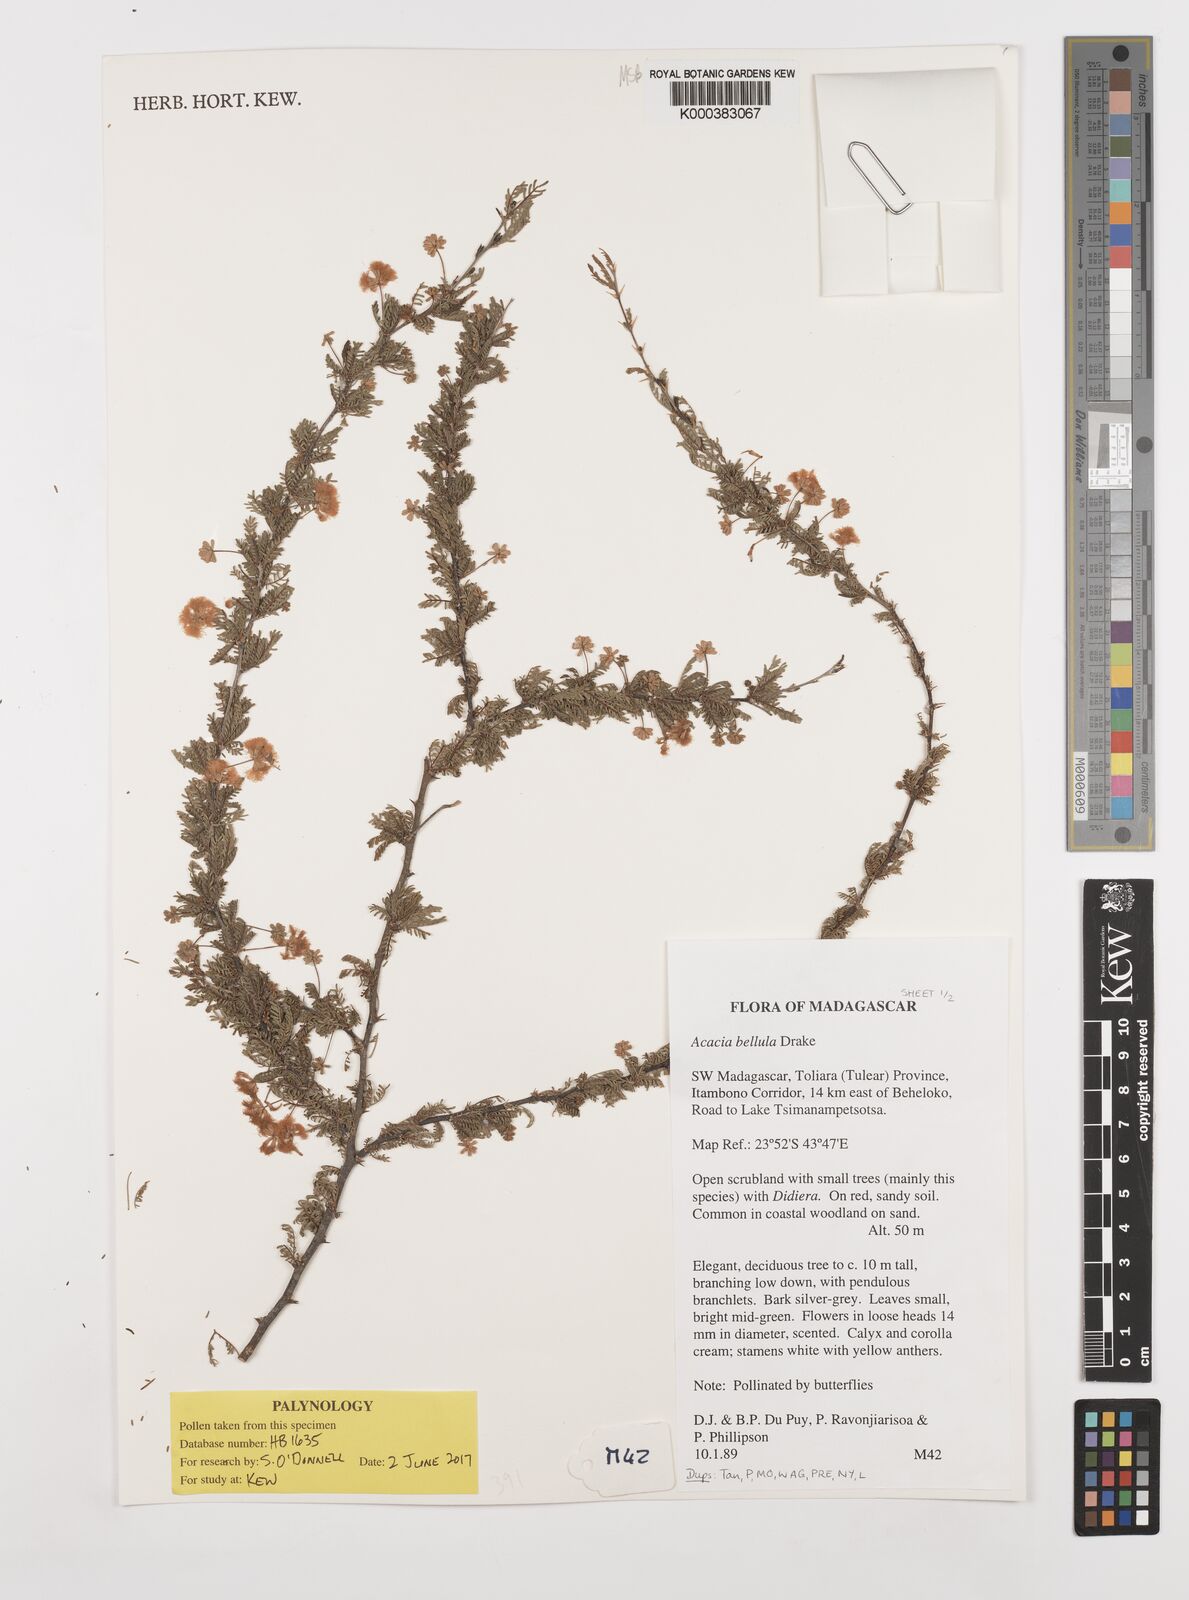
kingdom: Plantae
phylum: Tracheophyta
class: Magnoliopsida
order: Fabales
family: Fabaceae
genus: Vachellia
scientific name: Vachellia bellula
